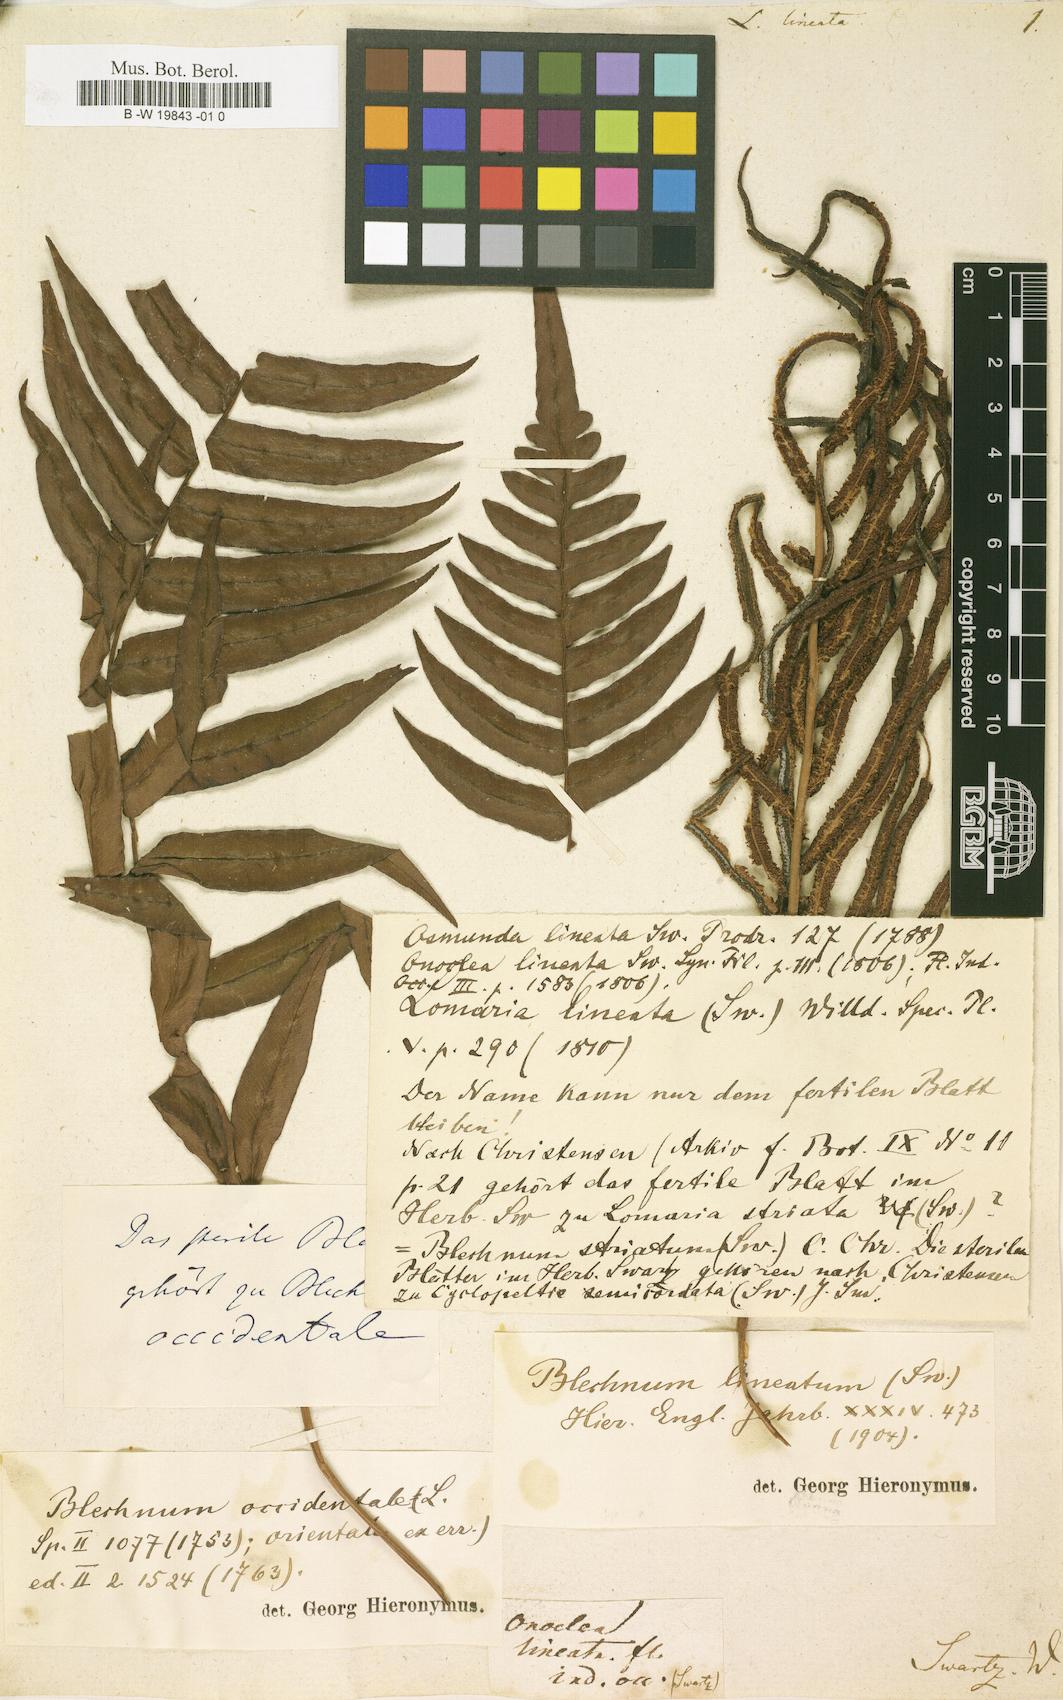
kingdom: Plantae
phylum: Tracheophyta
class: Polypodiopsida
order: Polypodiales
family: Blechnaceae
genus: Parablechnum
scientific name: Parablechnum lineatum
